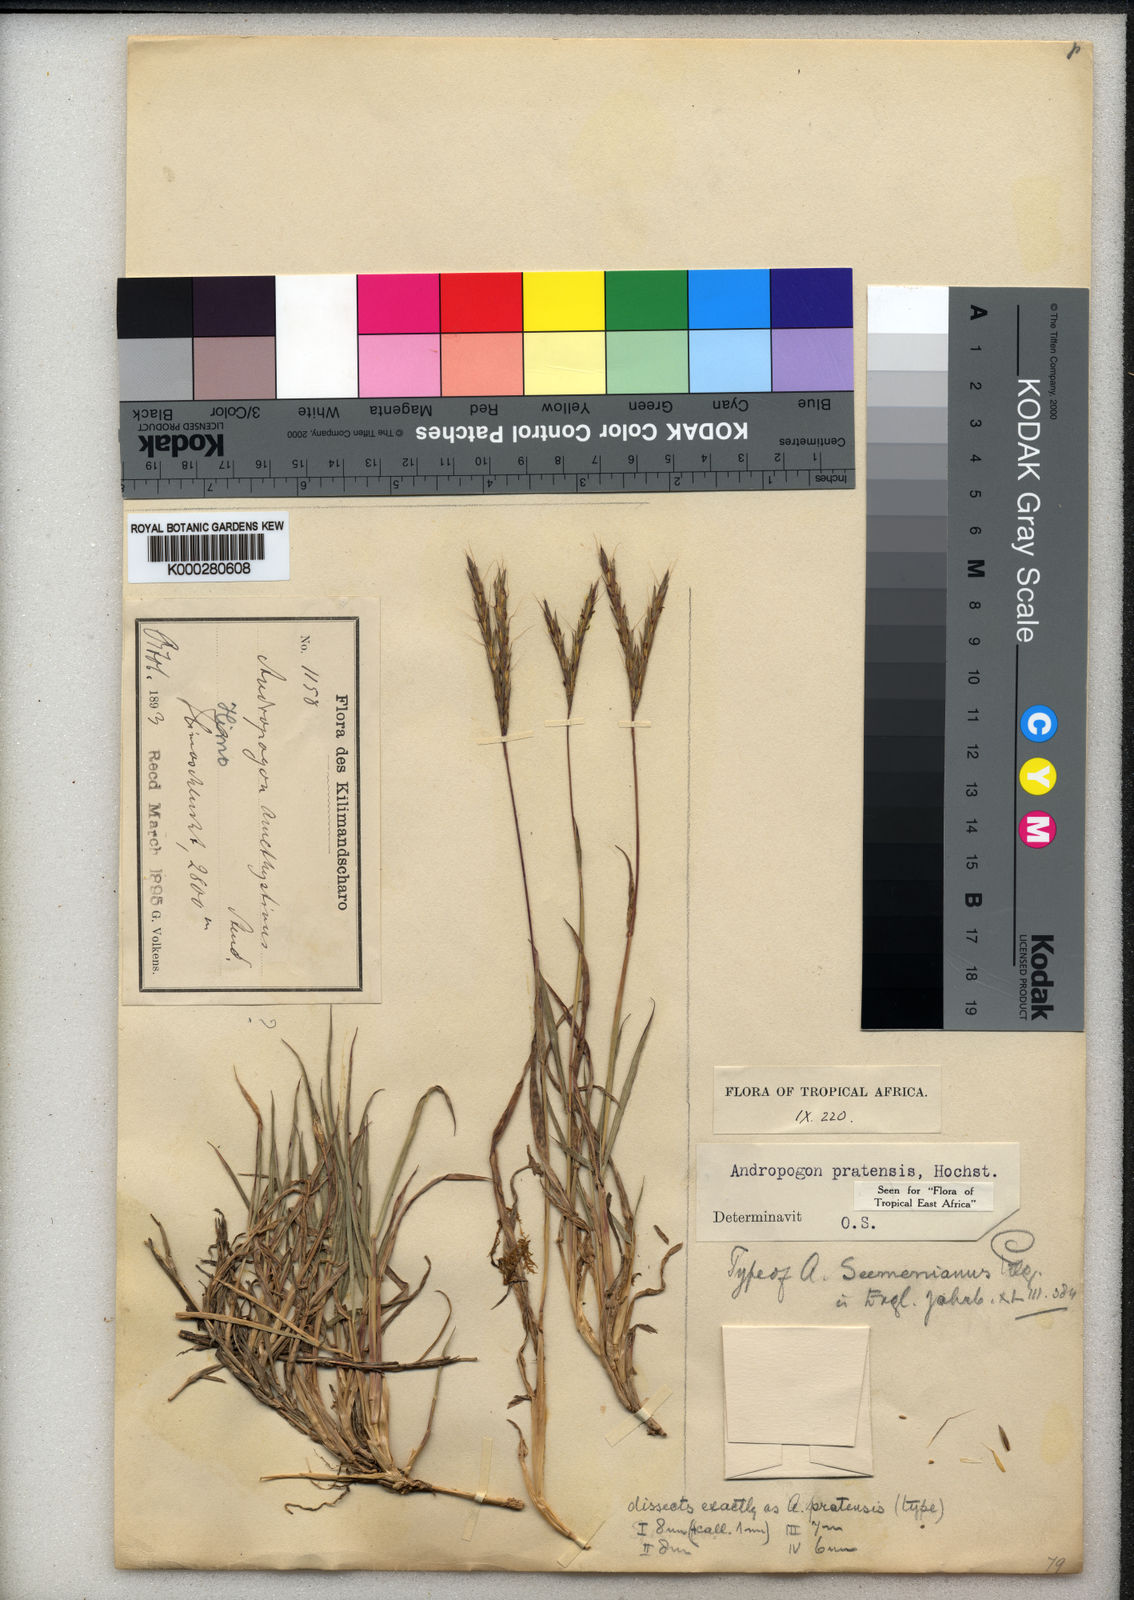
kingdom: Plantae
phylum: Tracheophyta
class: Liliopsida
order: Poales
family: Poaceae
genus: Andropogon
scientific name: Andropogon amethystinus
